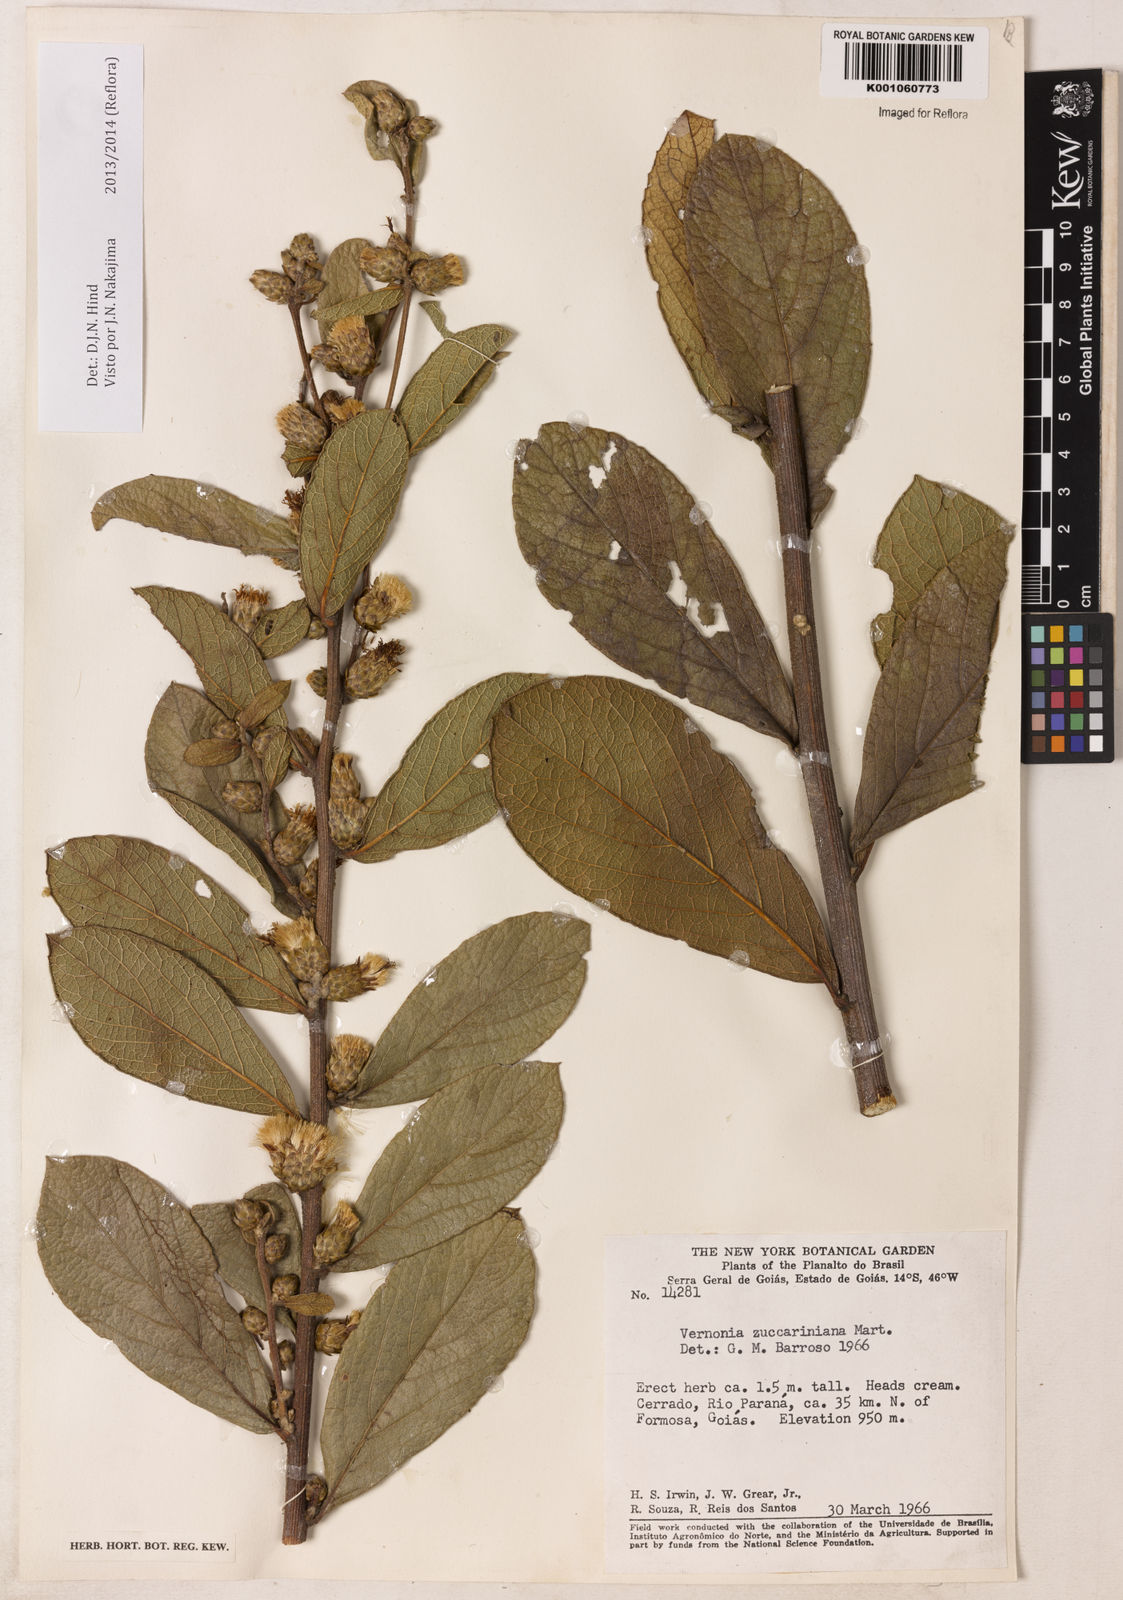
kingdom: Plantae
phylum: Tracheophyta
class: Magnoliopsida
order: Asterales
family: Asteraceae
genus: Lessingianthus
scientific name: Lessingianthus zuccarinianus
